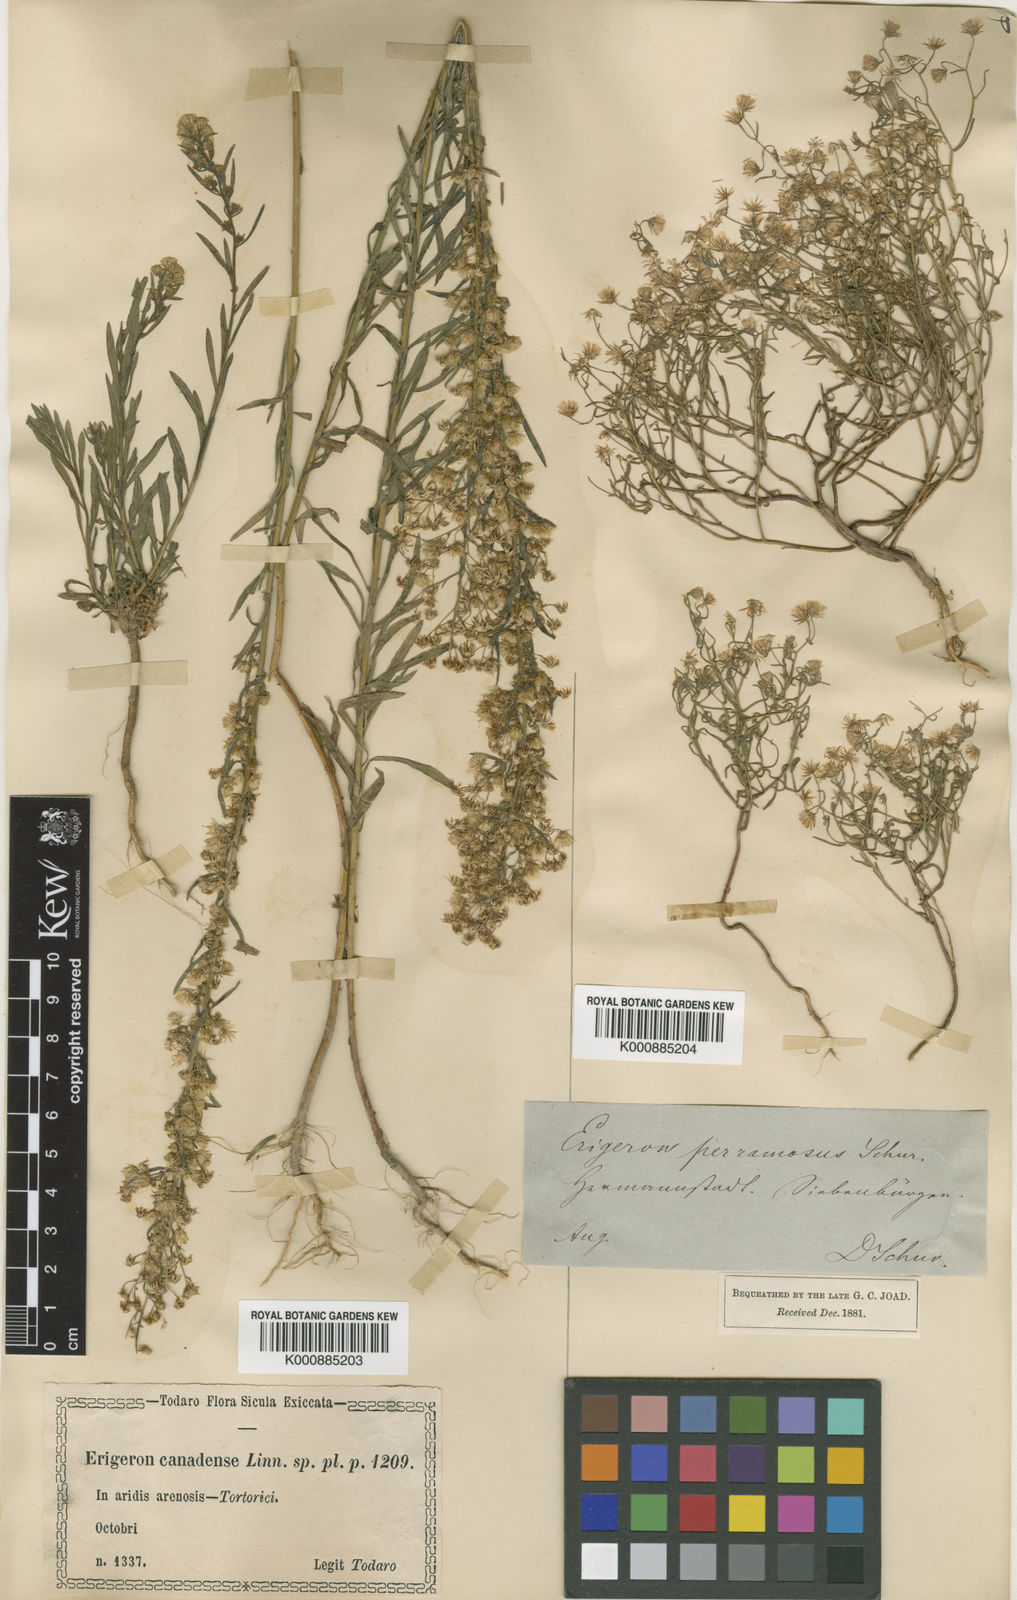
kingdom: Plantae
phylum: Tracheophyta
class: Magnoliopsida
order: Asterales
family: Asteraceae
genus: Erigeron
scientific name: Erigeron canadensis
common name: Canadian fleabane
